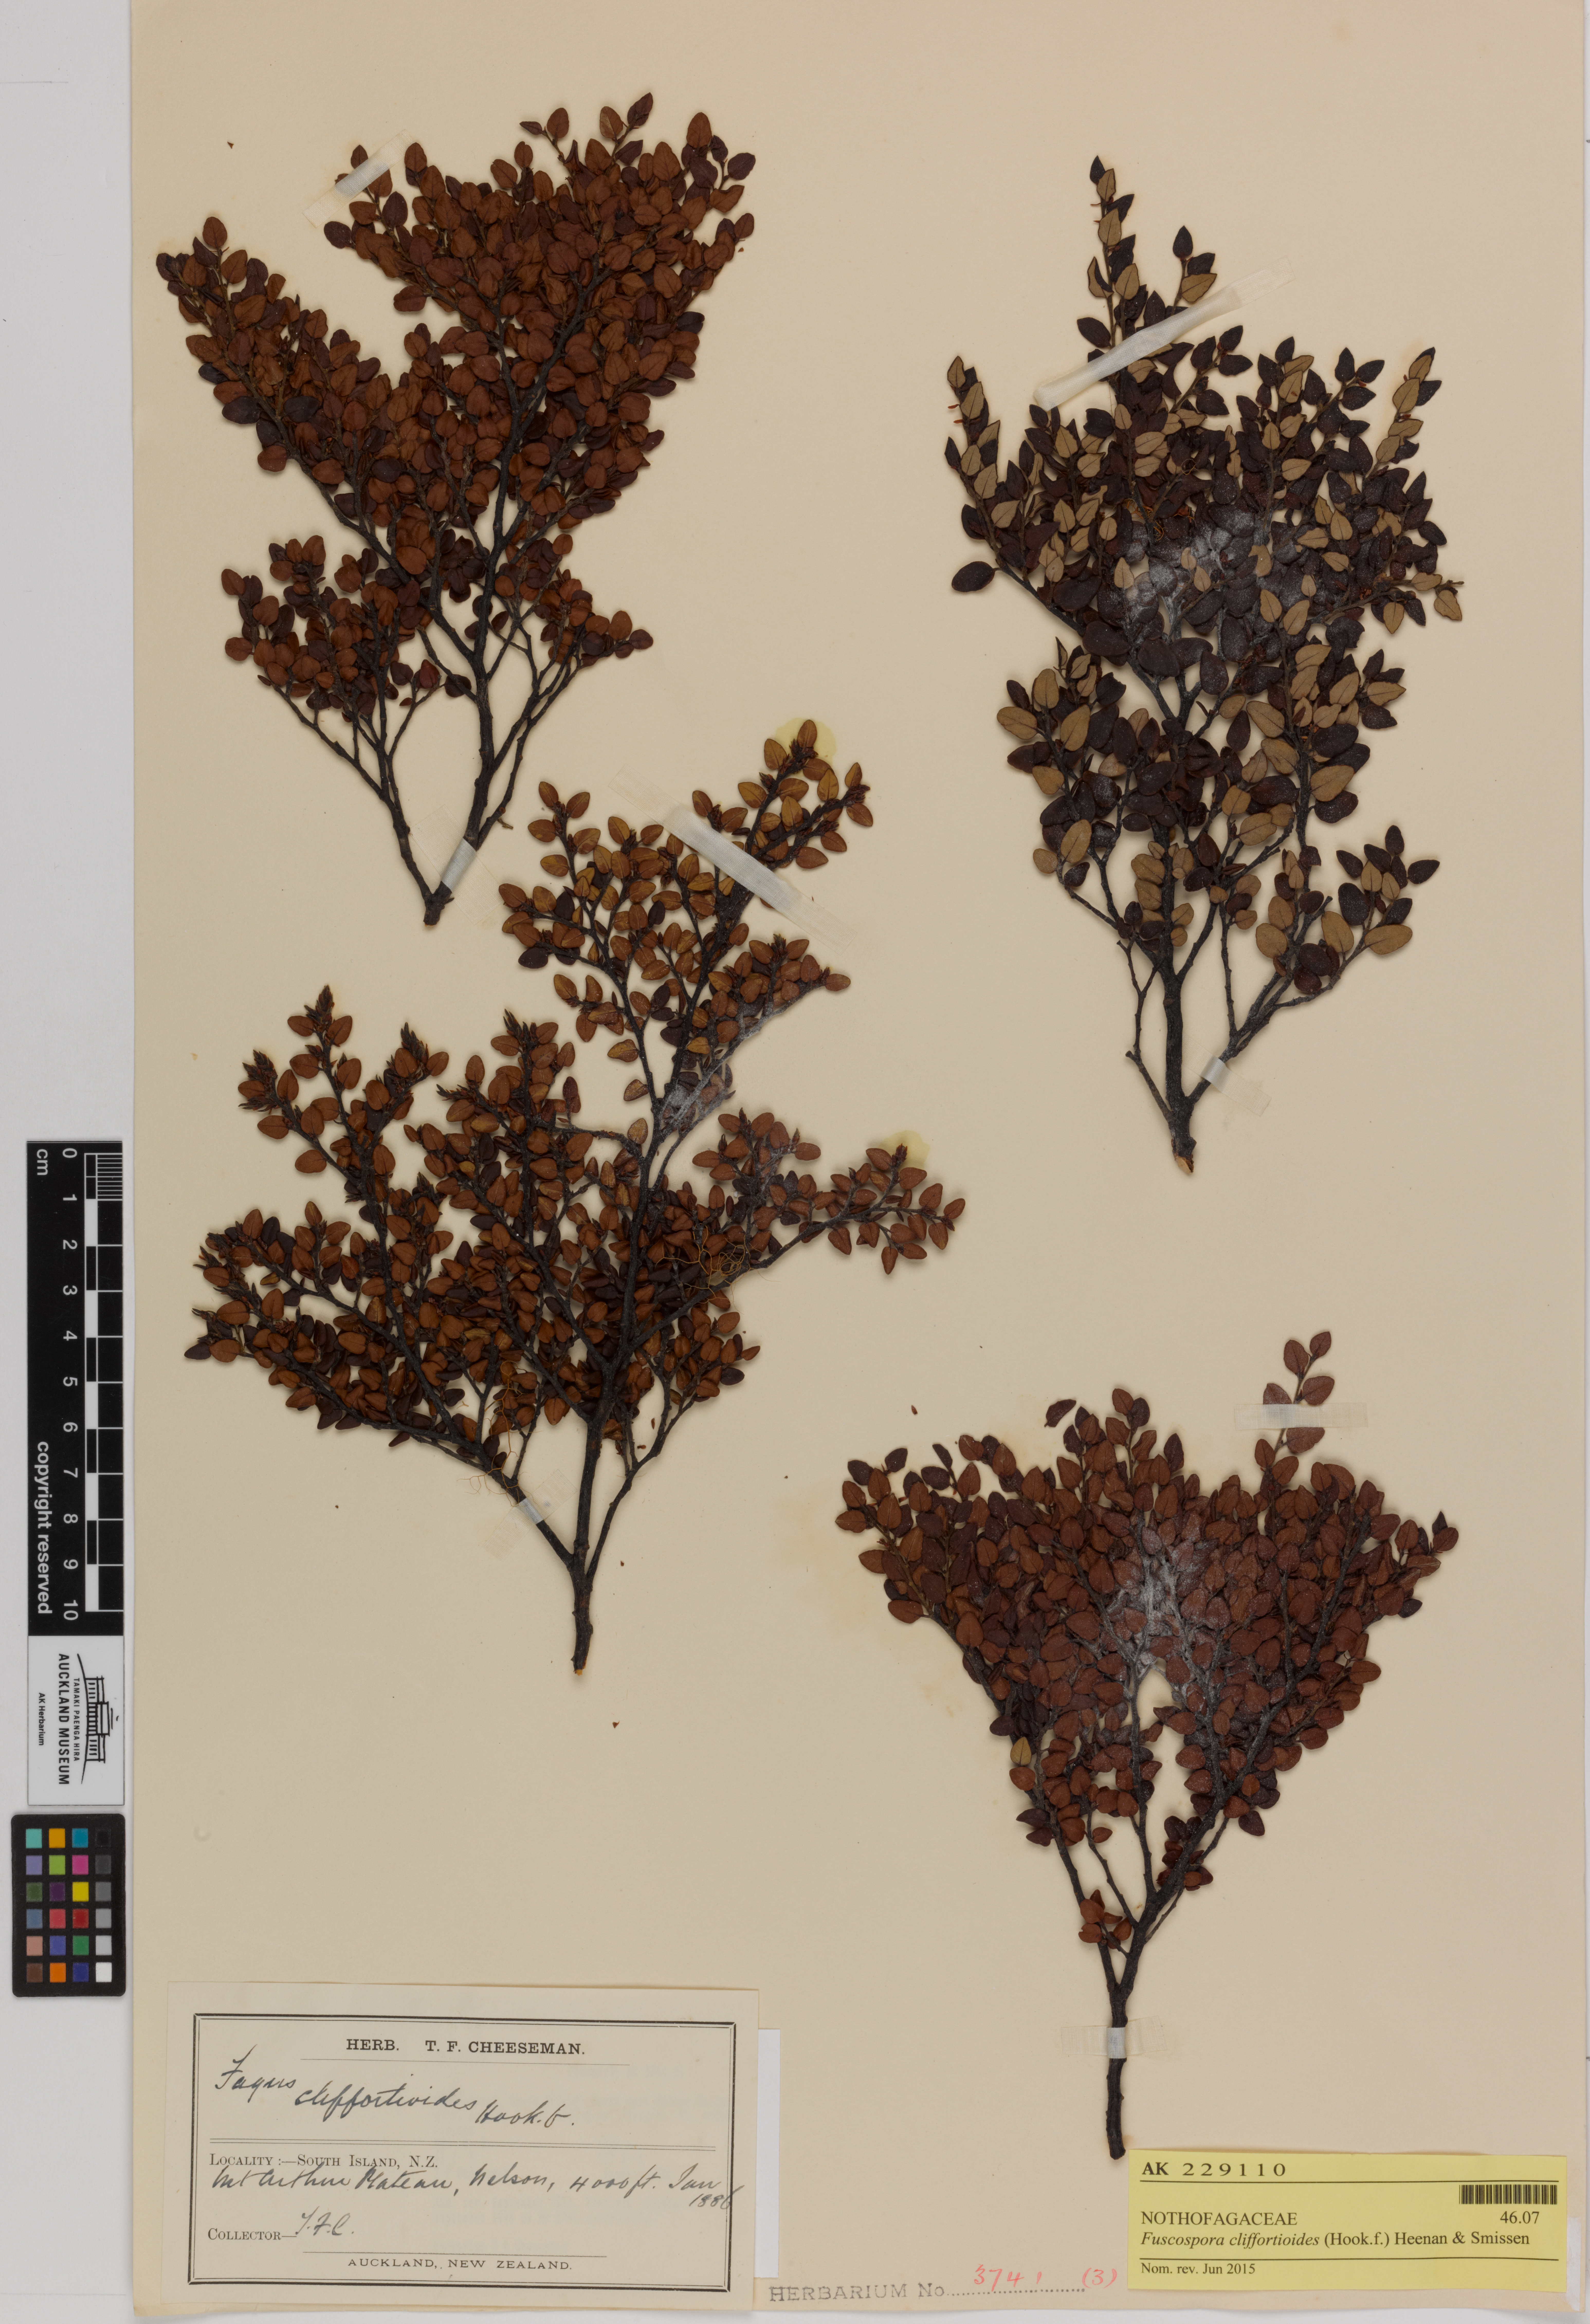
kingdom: Plantae
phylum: Tracheophyta
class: Magnoliopsida
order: Fagales
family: Nothofagaceae
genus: Nothofagus
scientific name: Nothofagus cliffortioides
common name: Mountain beech
